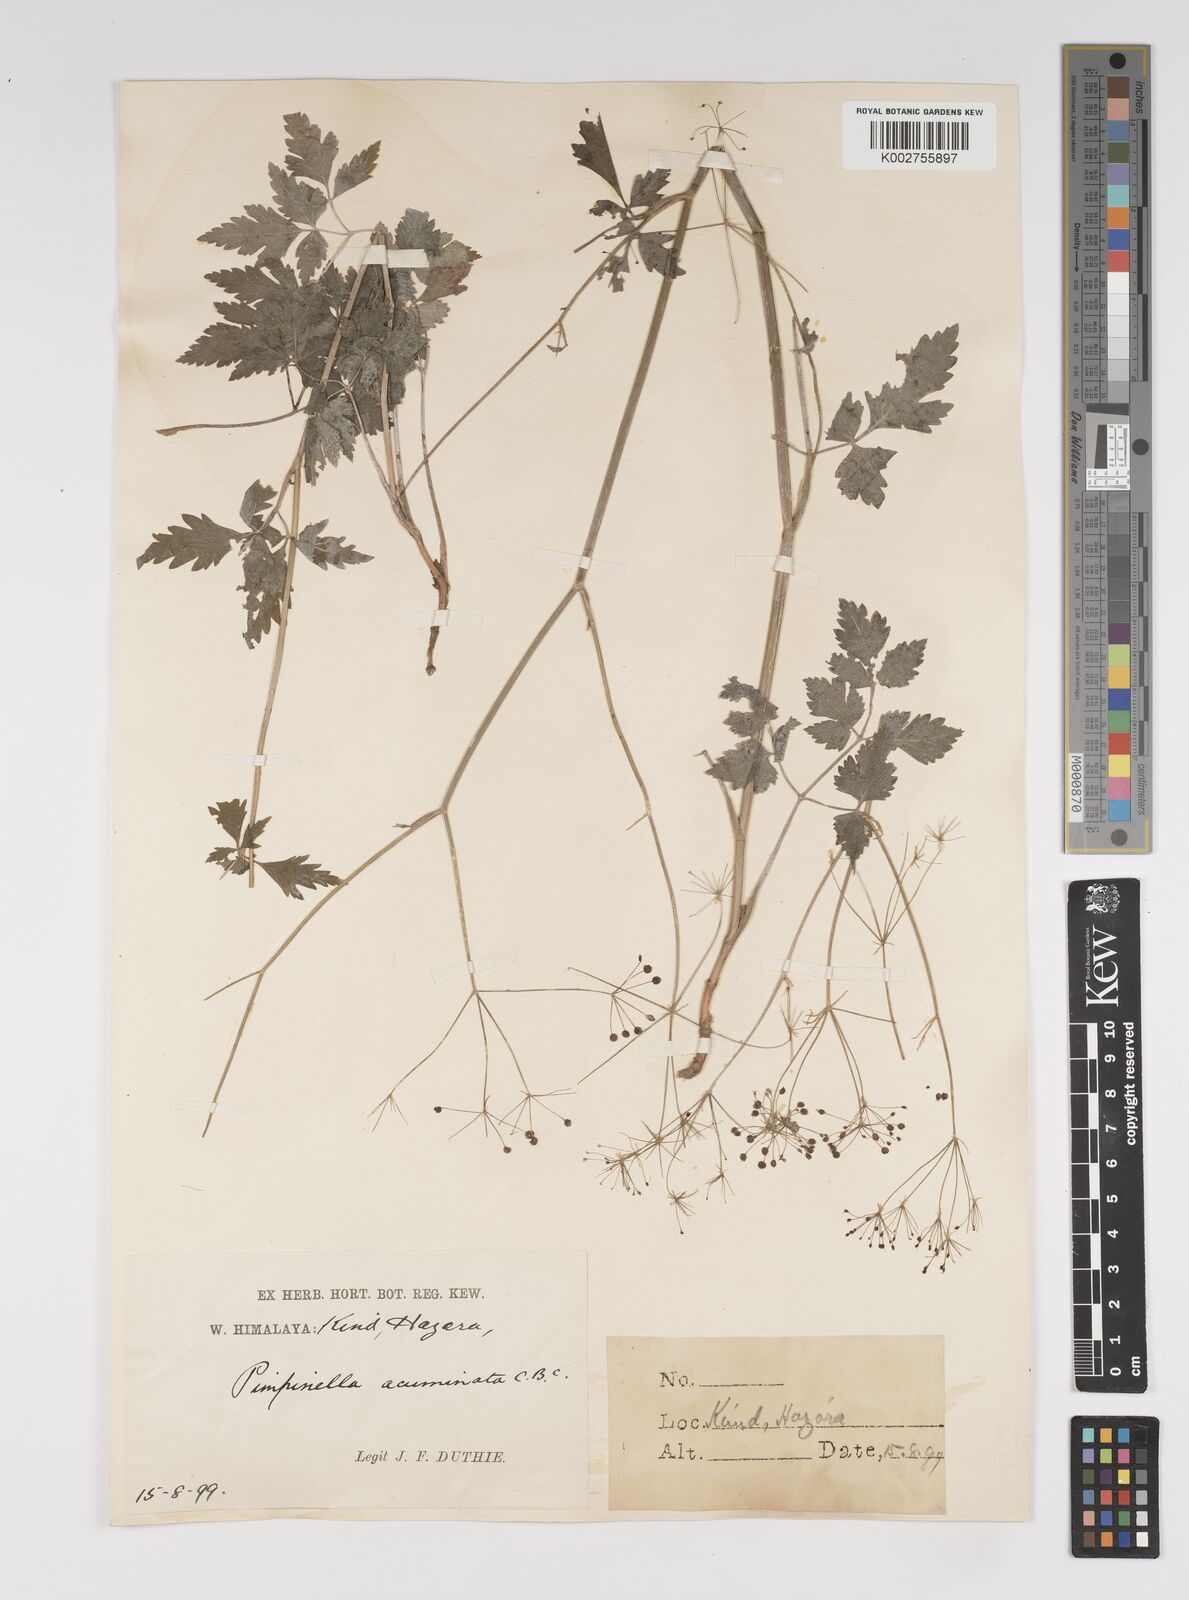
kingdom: Plantae
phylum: Tracheophyta
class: Magnoliopsida
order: Apiales
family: Apiaceae
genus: Pimpinella
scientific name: Pimpinella acuminata
